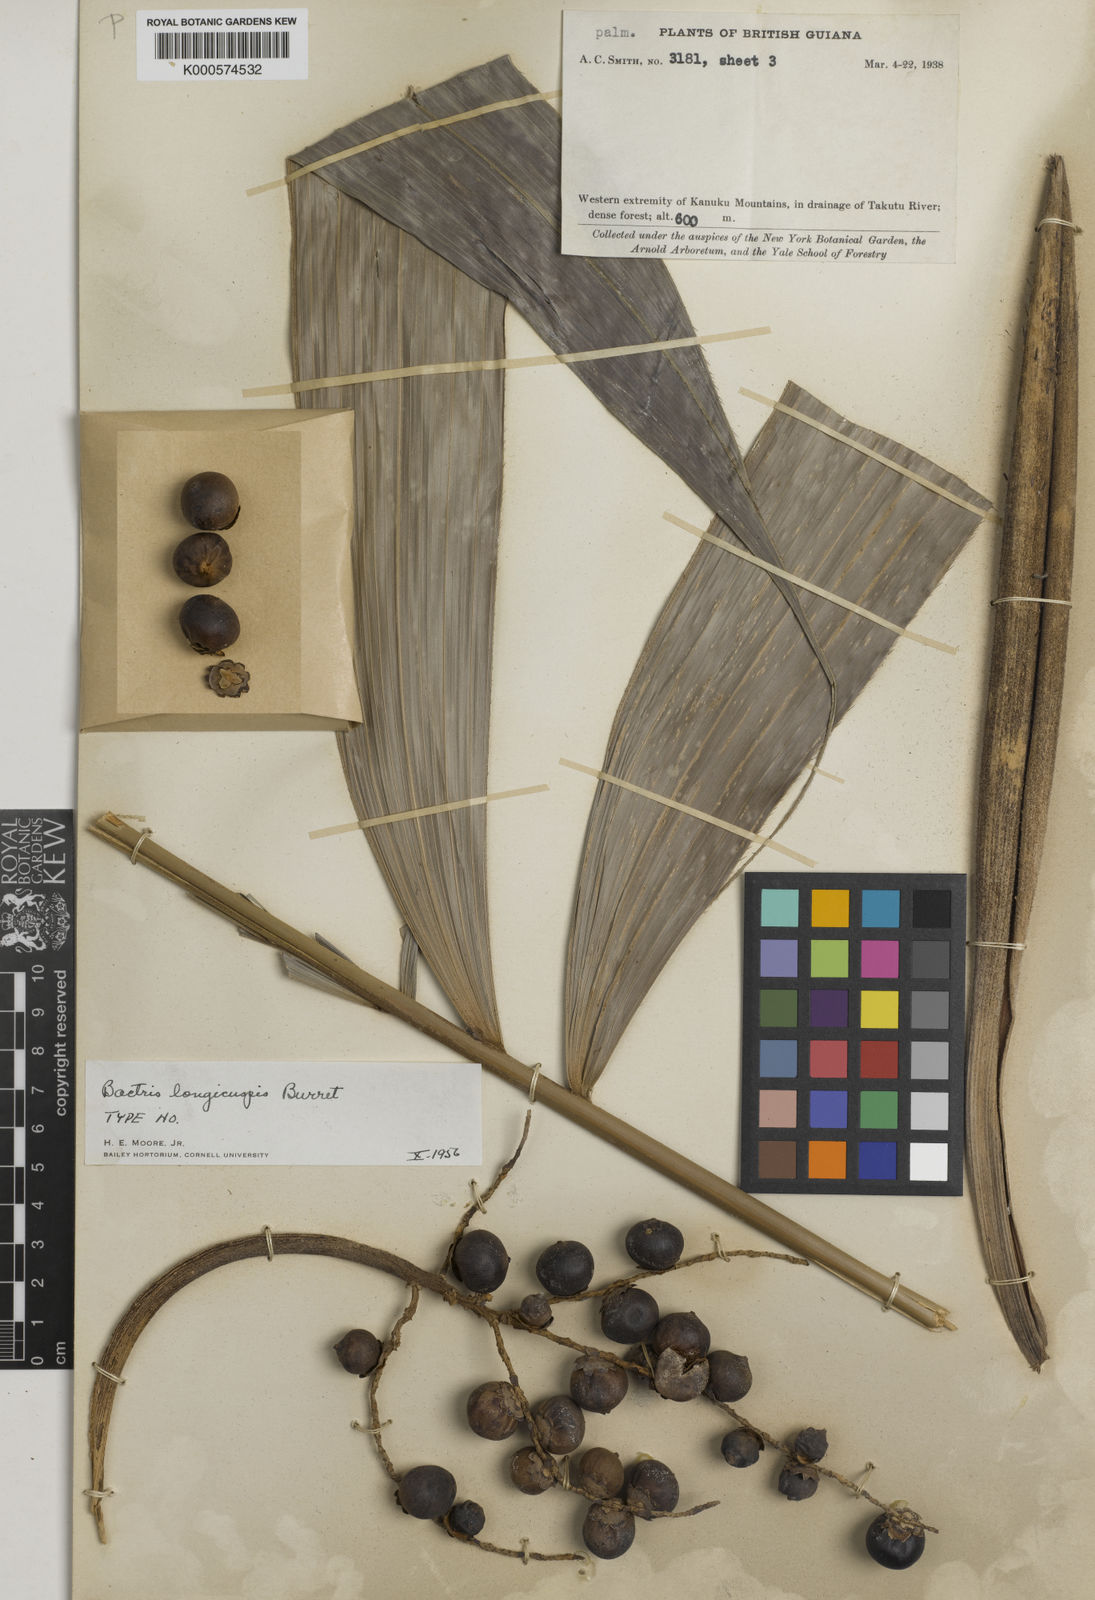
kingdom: Plantae
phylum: Tracheophyta
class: Liliopsida
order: Arecales
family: Arecaceae
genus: Bactris
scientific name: Bactris maraja
